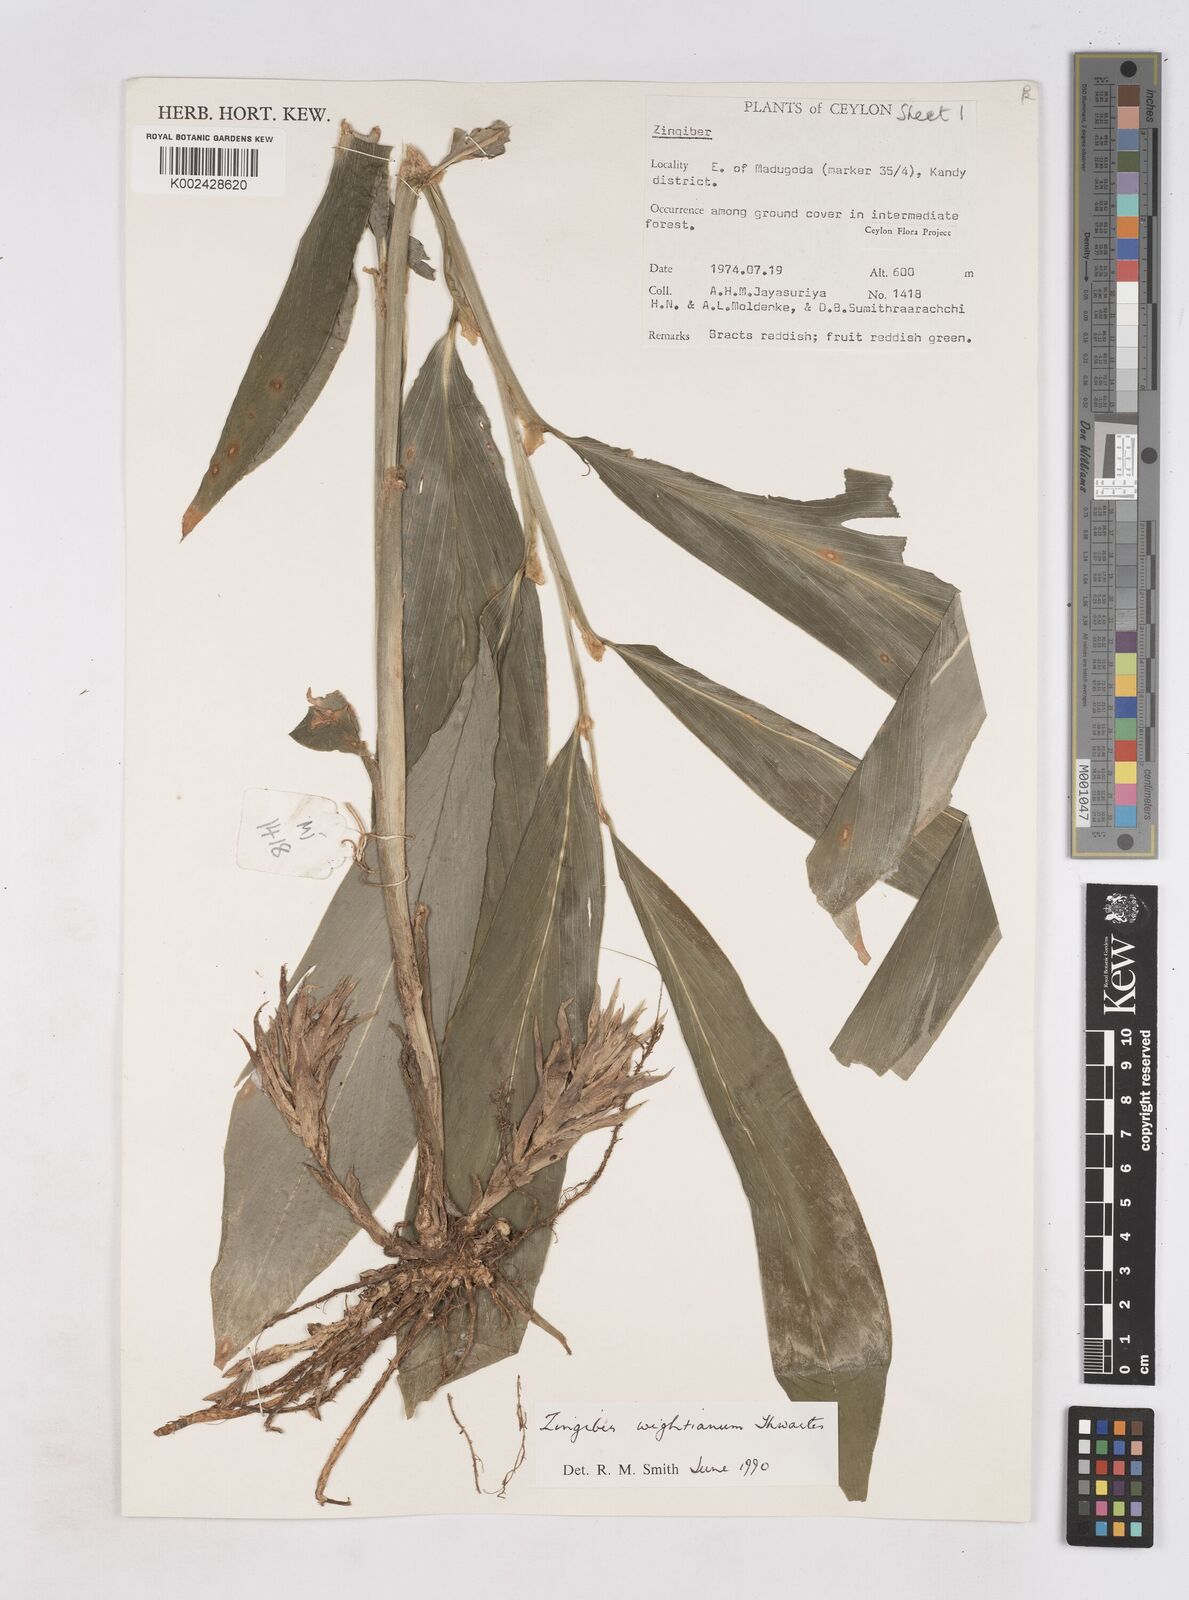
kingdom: Plantae
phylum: Tracheophyta
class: Liliopsida
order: Zingiberales
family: Zingiberaceae
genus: Zingiber
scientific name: Zingiber wightianum
